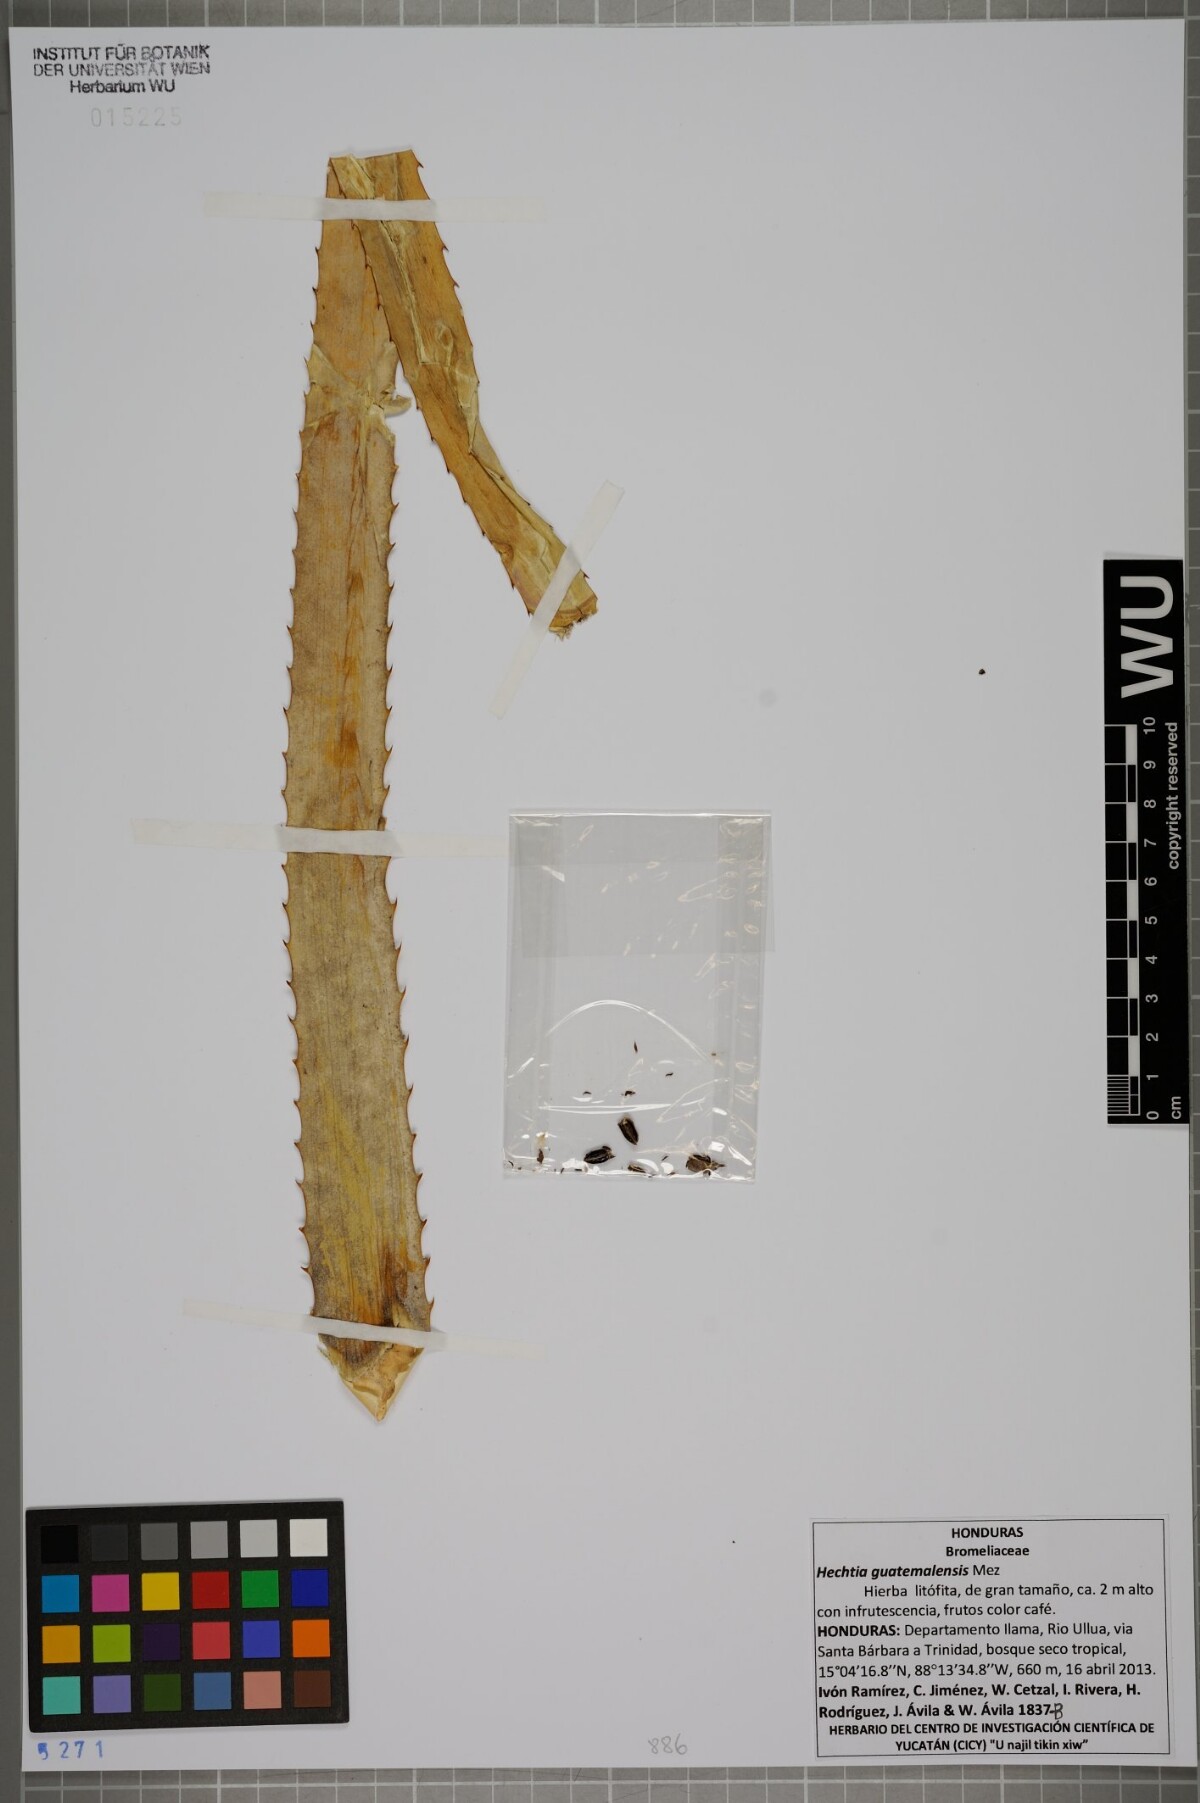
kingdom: Plantae
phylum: Tracheophyta
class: Liliopsida
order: Poales
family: Bromeliaceae
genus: Hechtia
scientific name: Hechtia guatemalensis
